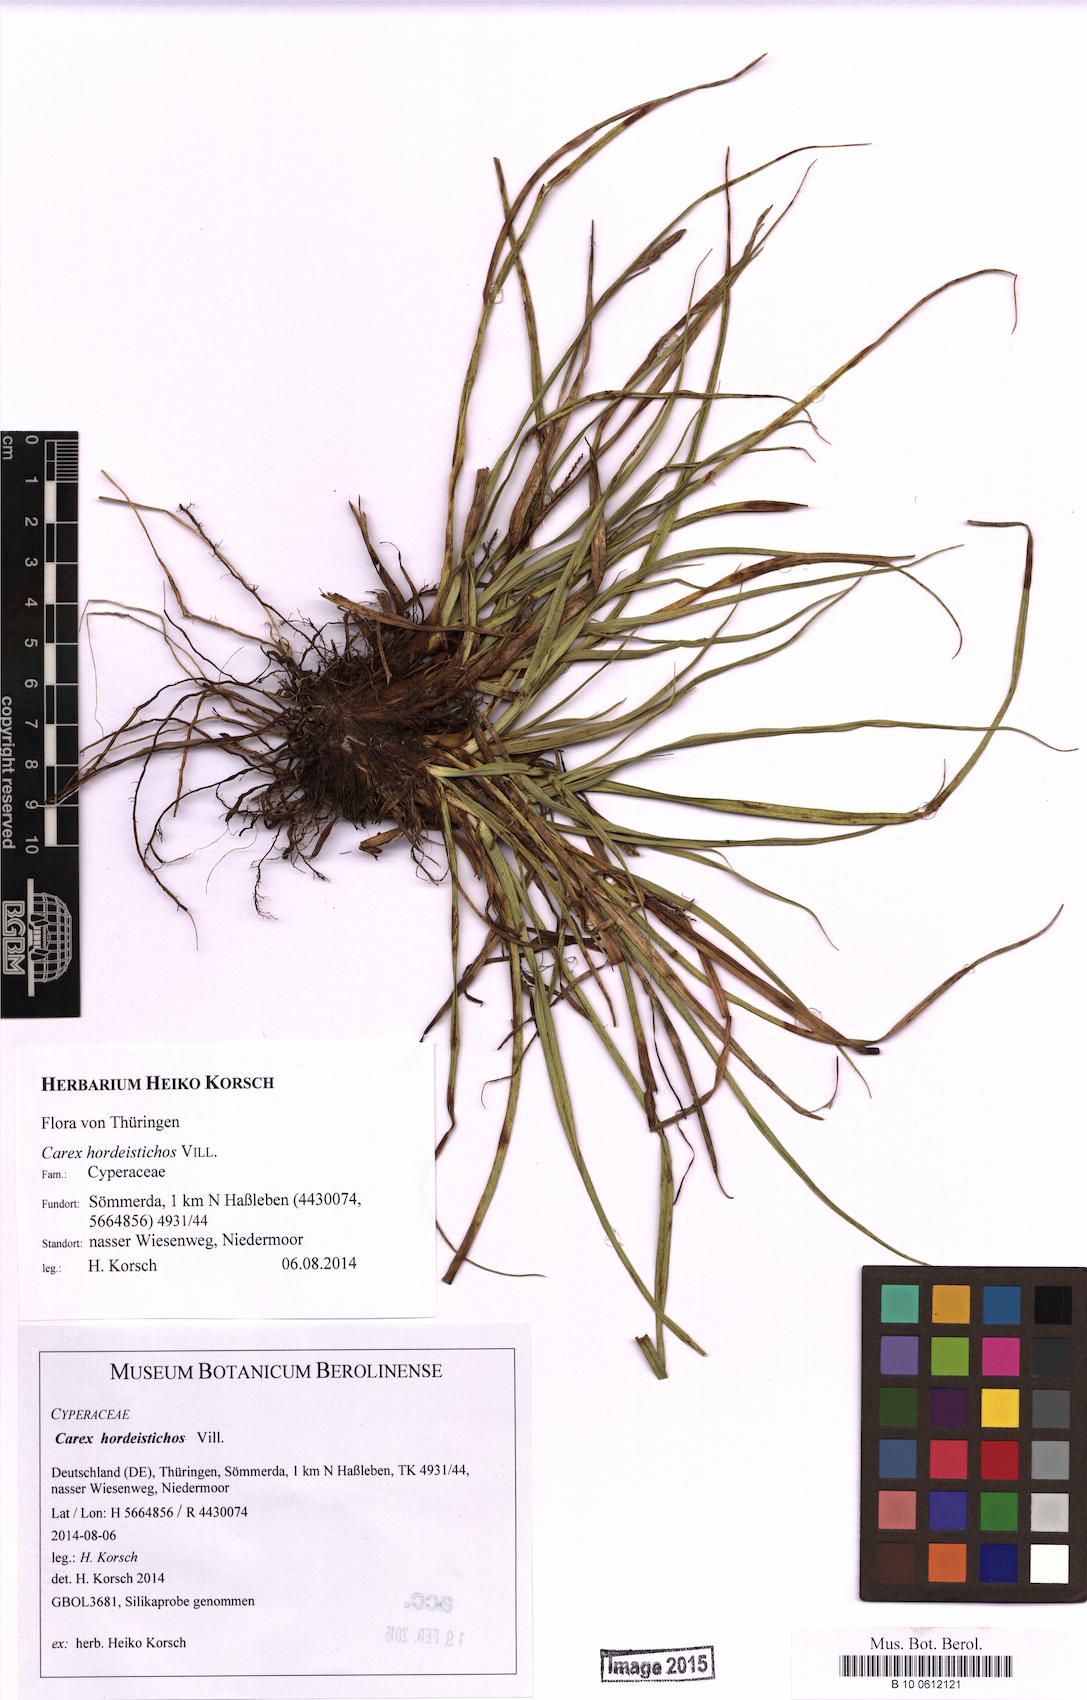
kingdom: Plantae
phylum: Tracheophyta
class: Liliopsida
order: Poales
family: Cyperaceae
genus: Carex
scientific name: Carex hordeistichos
